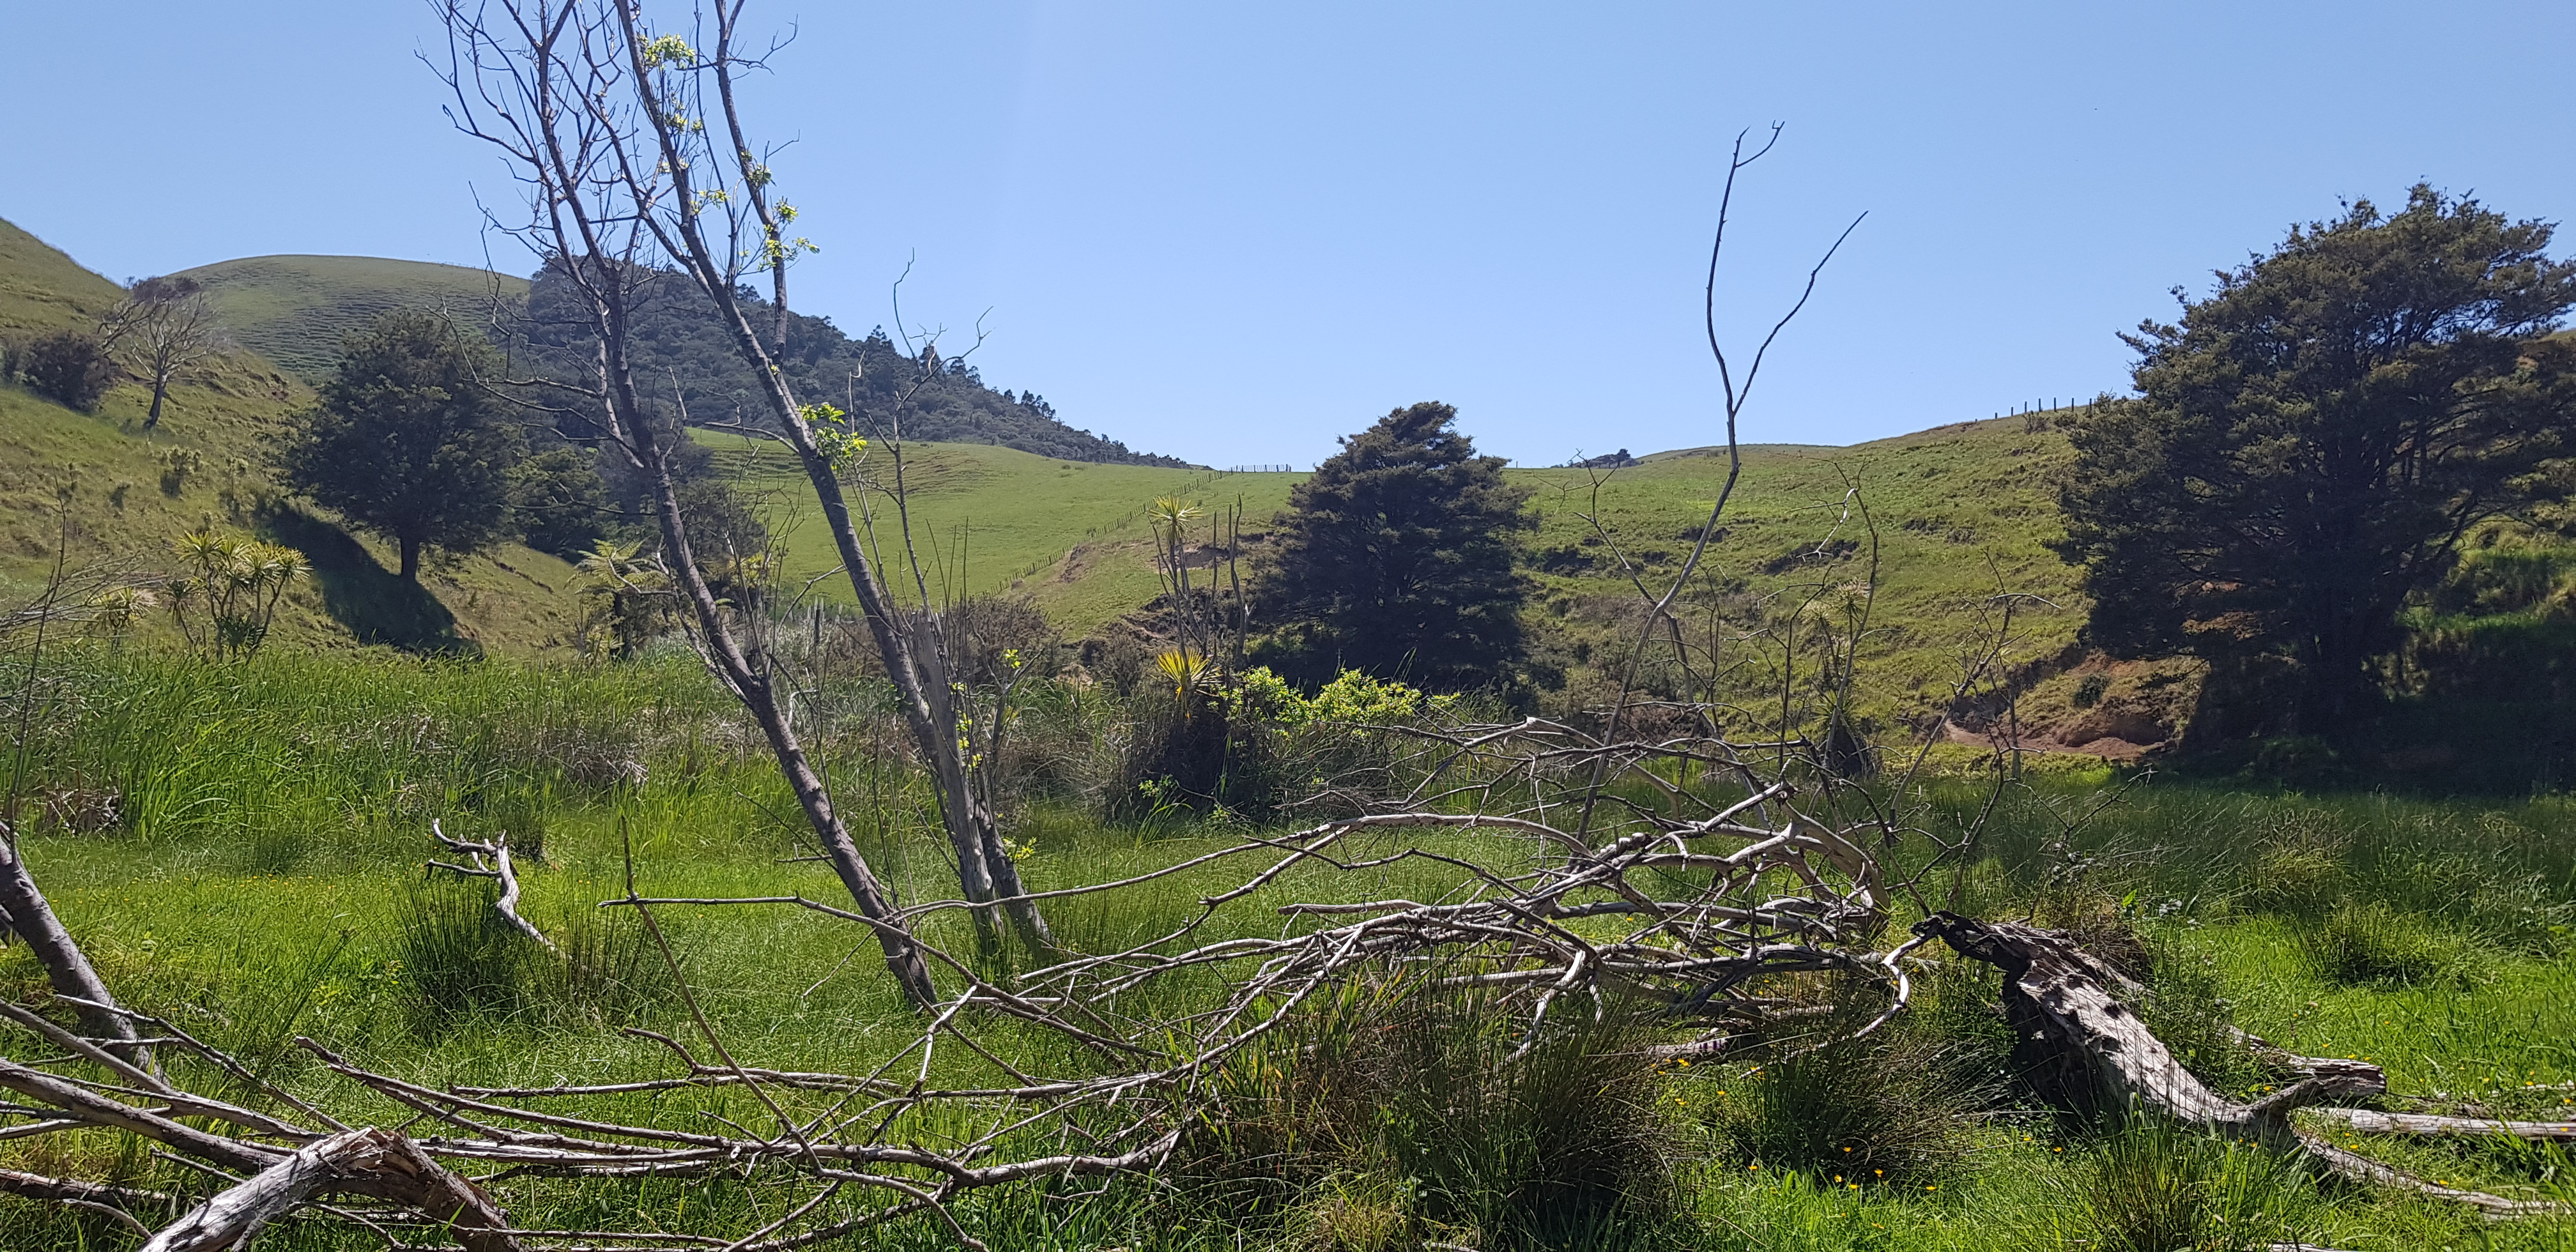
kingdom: Plantae
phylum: Tracheophyta
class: Magnoliopsida
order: Malpighiales
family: Salicaceae
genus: Salix
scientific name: Salix phylicifolia
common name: Tea-leaved willow
